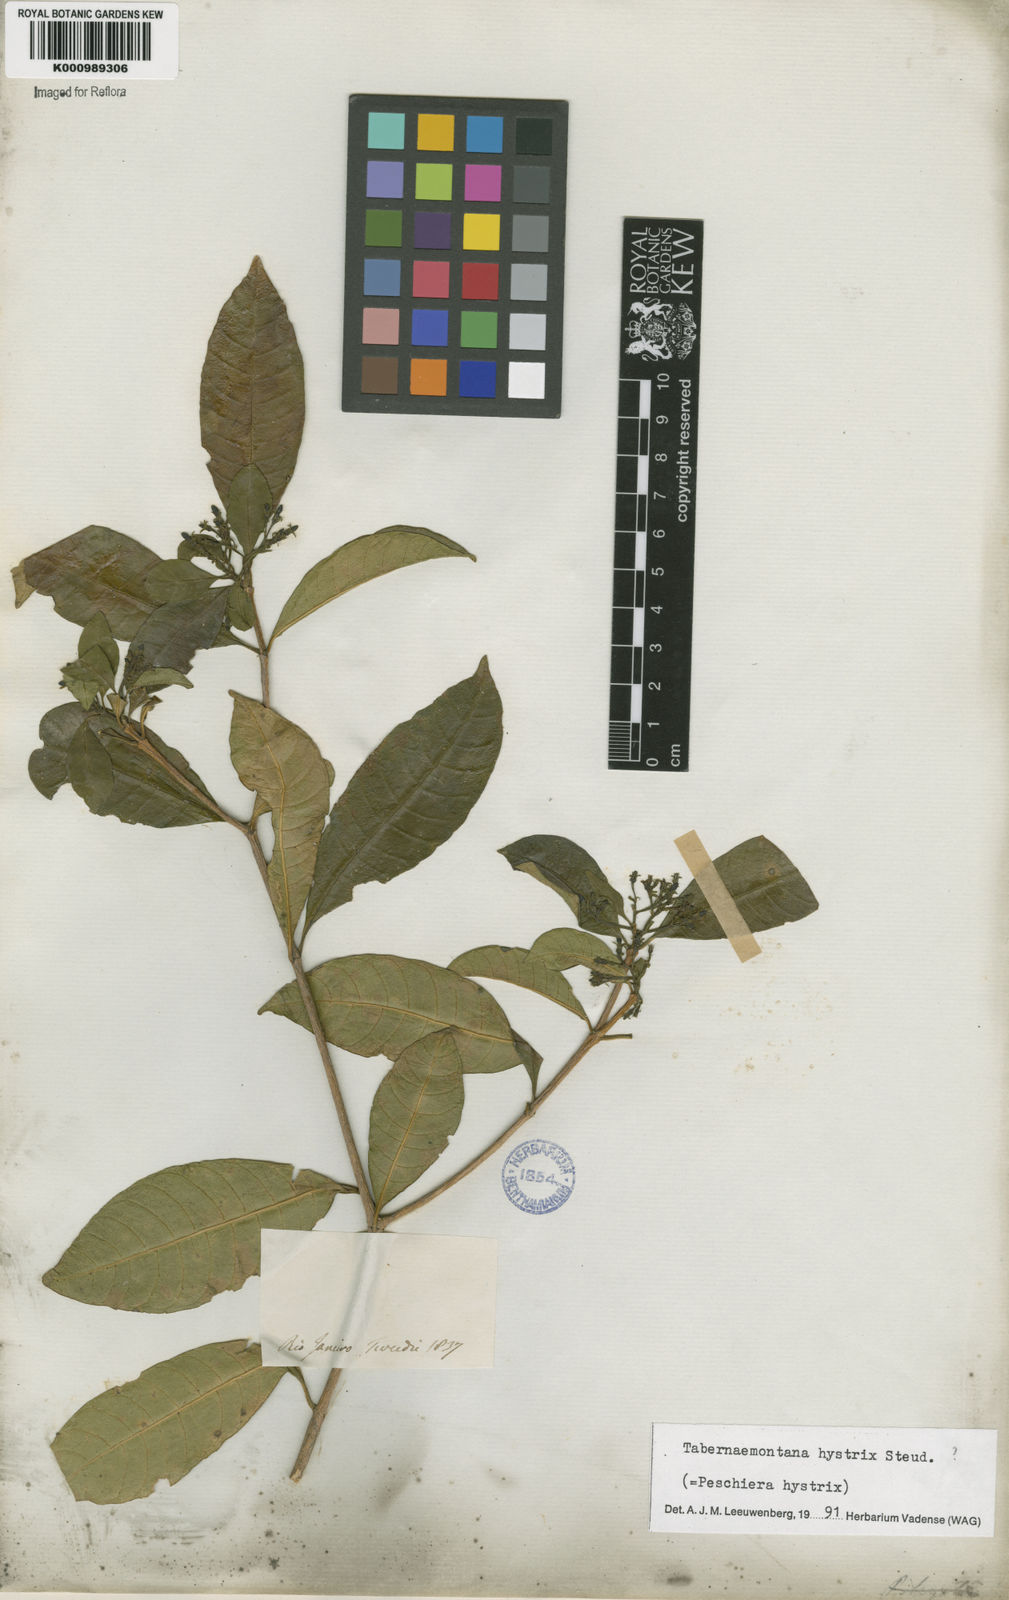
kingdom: Plantae
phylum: Tracheophyta
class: Magnoliopsida
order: Gentianales
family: Apocynaceae
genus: Tabernaemontana
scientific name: Tabernaemontana hystrix
